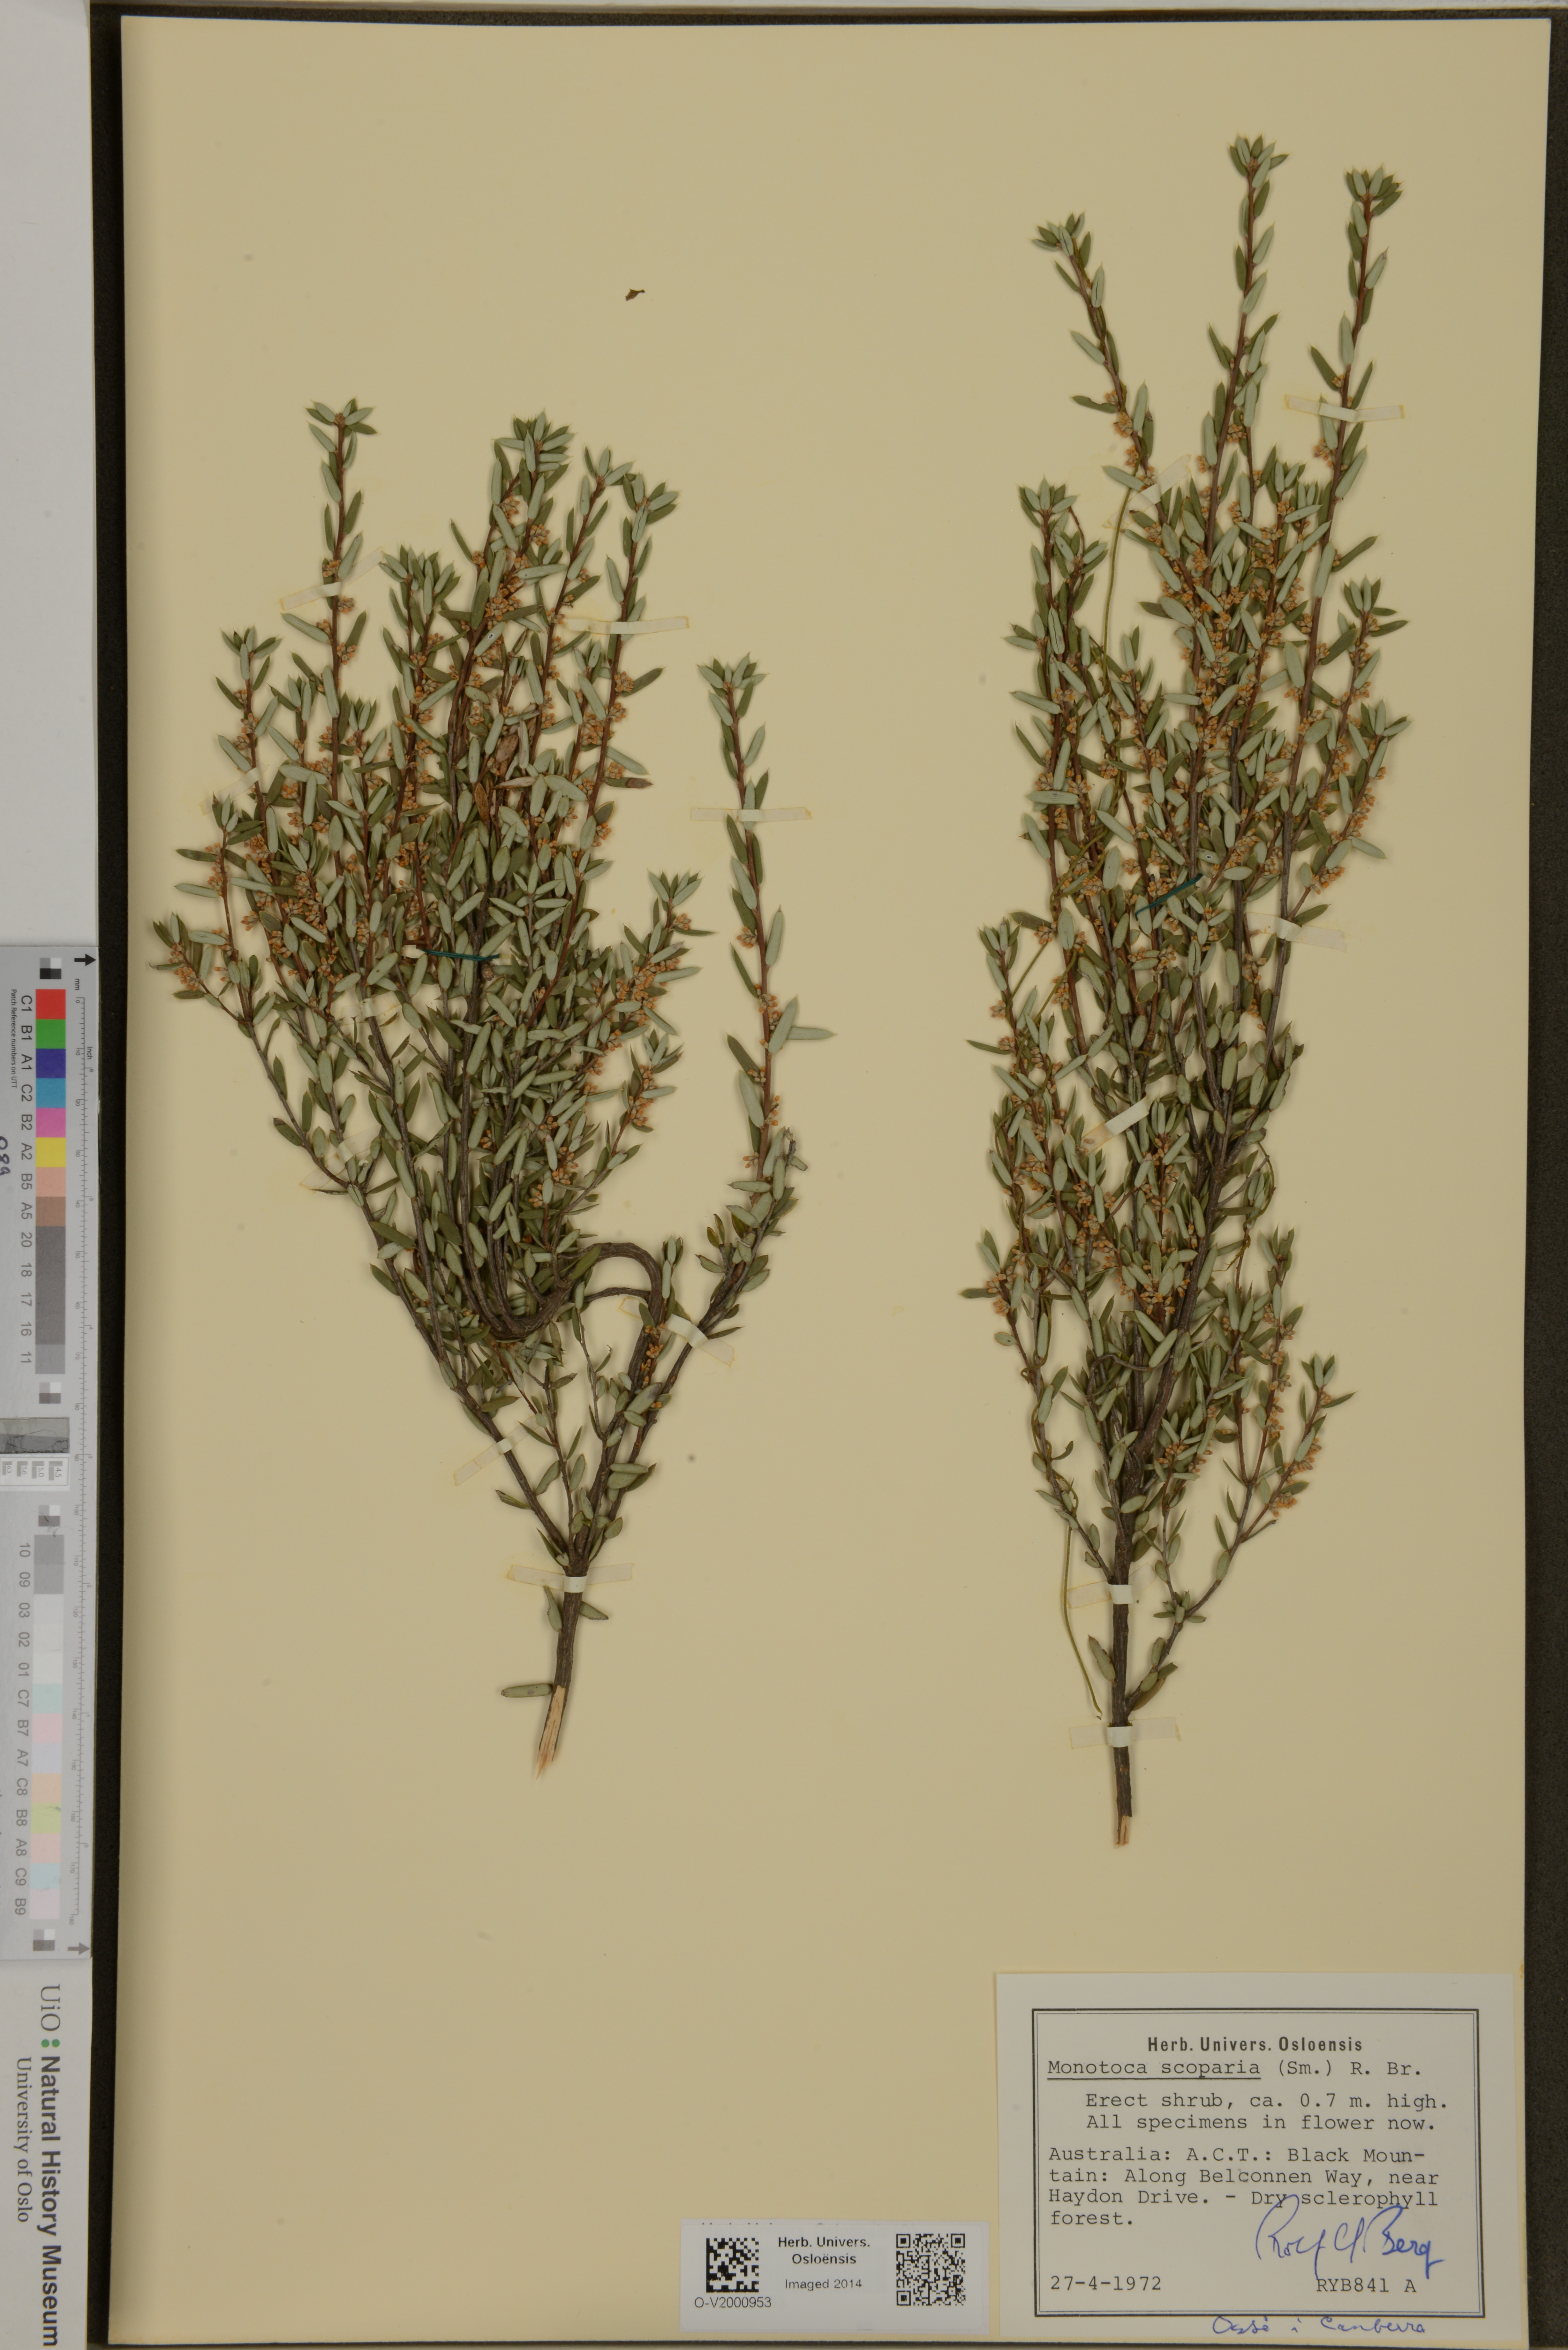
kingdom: Plantae
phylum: Tracheophyta
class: Magnoliopsida
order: Ericales
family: Ericaceae
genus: Monotoca
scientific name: Monotoca scoparia
